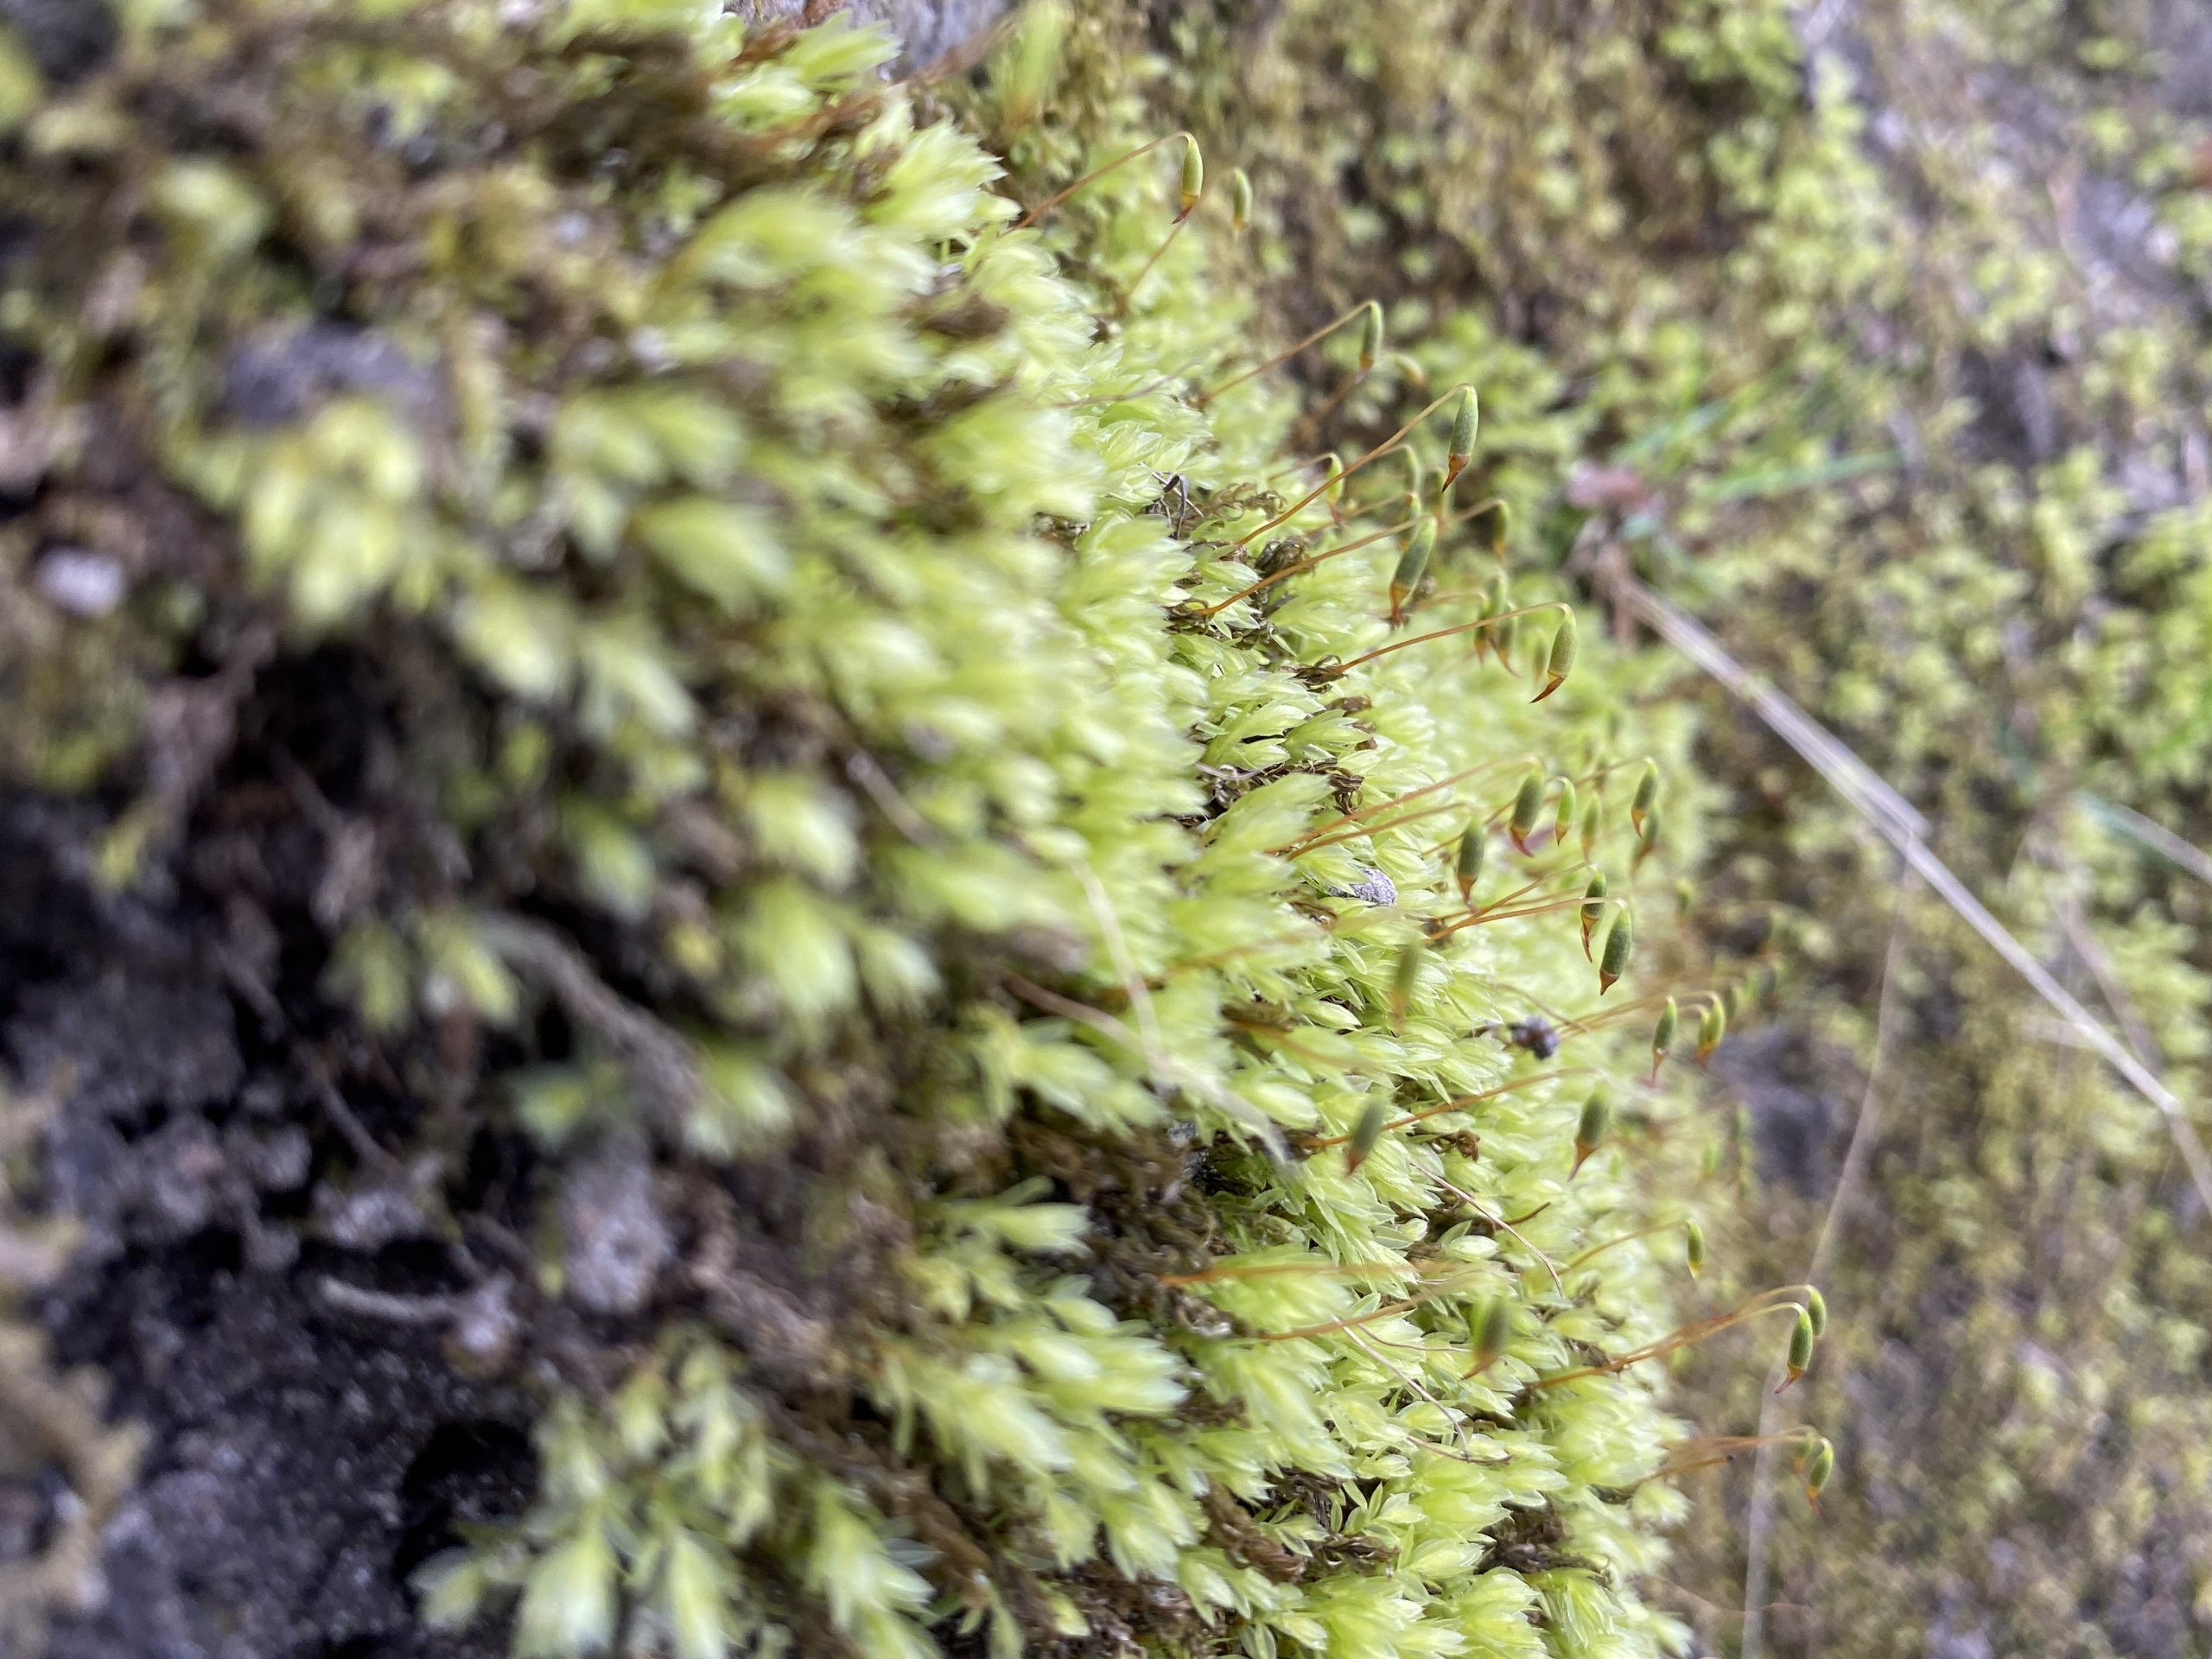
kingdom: Plantae
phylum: Bryophyta
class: Bryopsida
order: Bryales
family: Mniaceae
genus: Mnium
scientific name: Mnium marginatum
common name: Rødlig stjernemos
